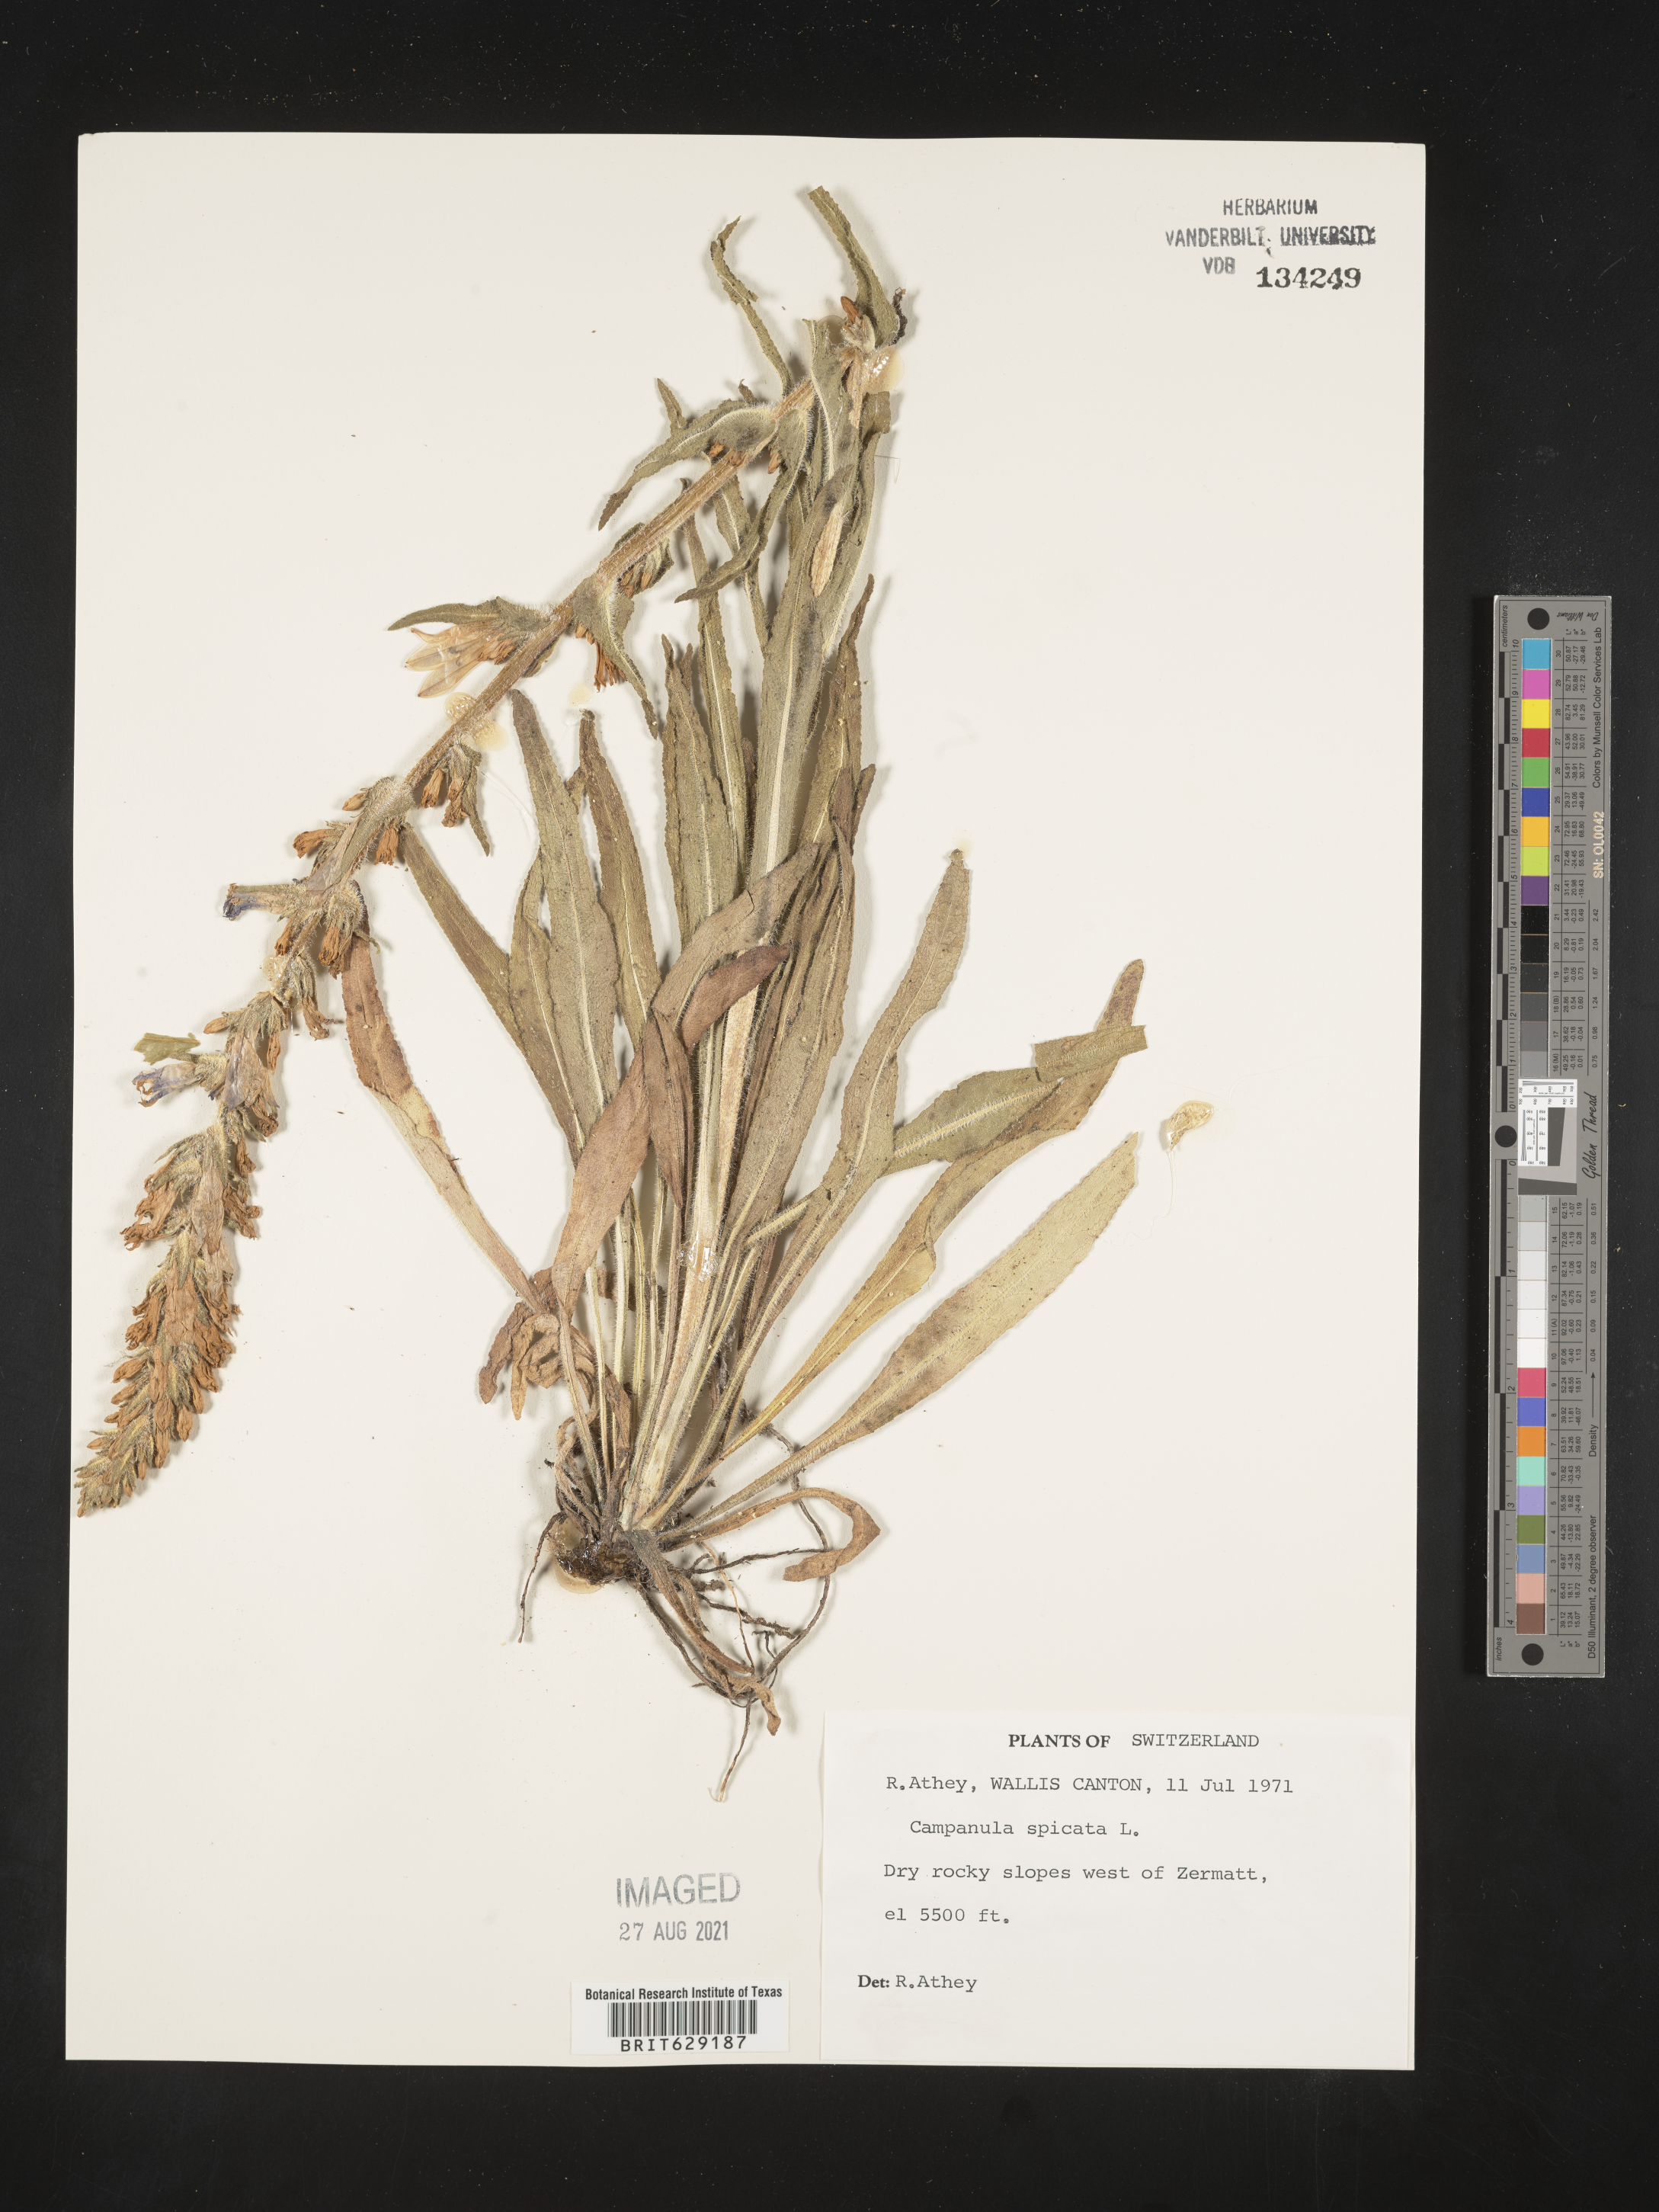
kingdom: Plantae
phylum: Tracheophyta
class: Magnoliopsida
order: Asterales
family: Campanulaceae
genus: Campanula
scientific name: Campanula spicata
